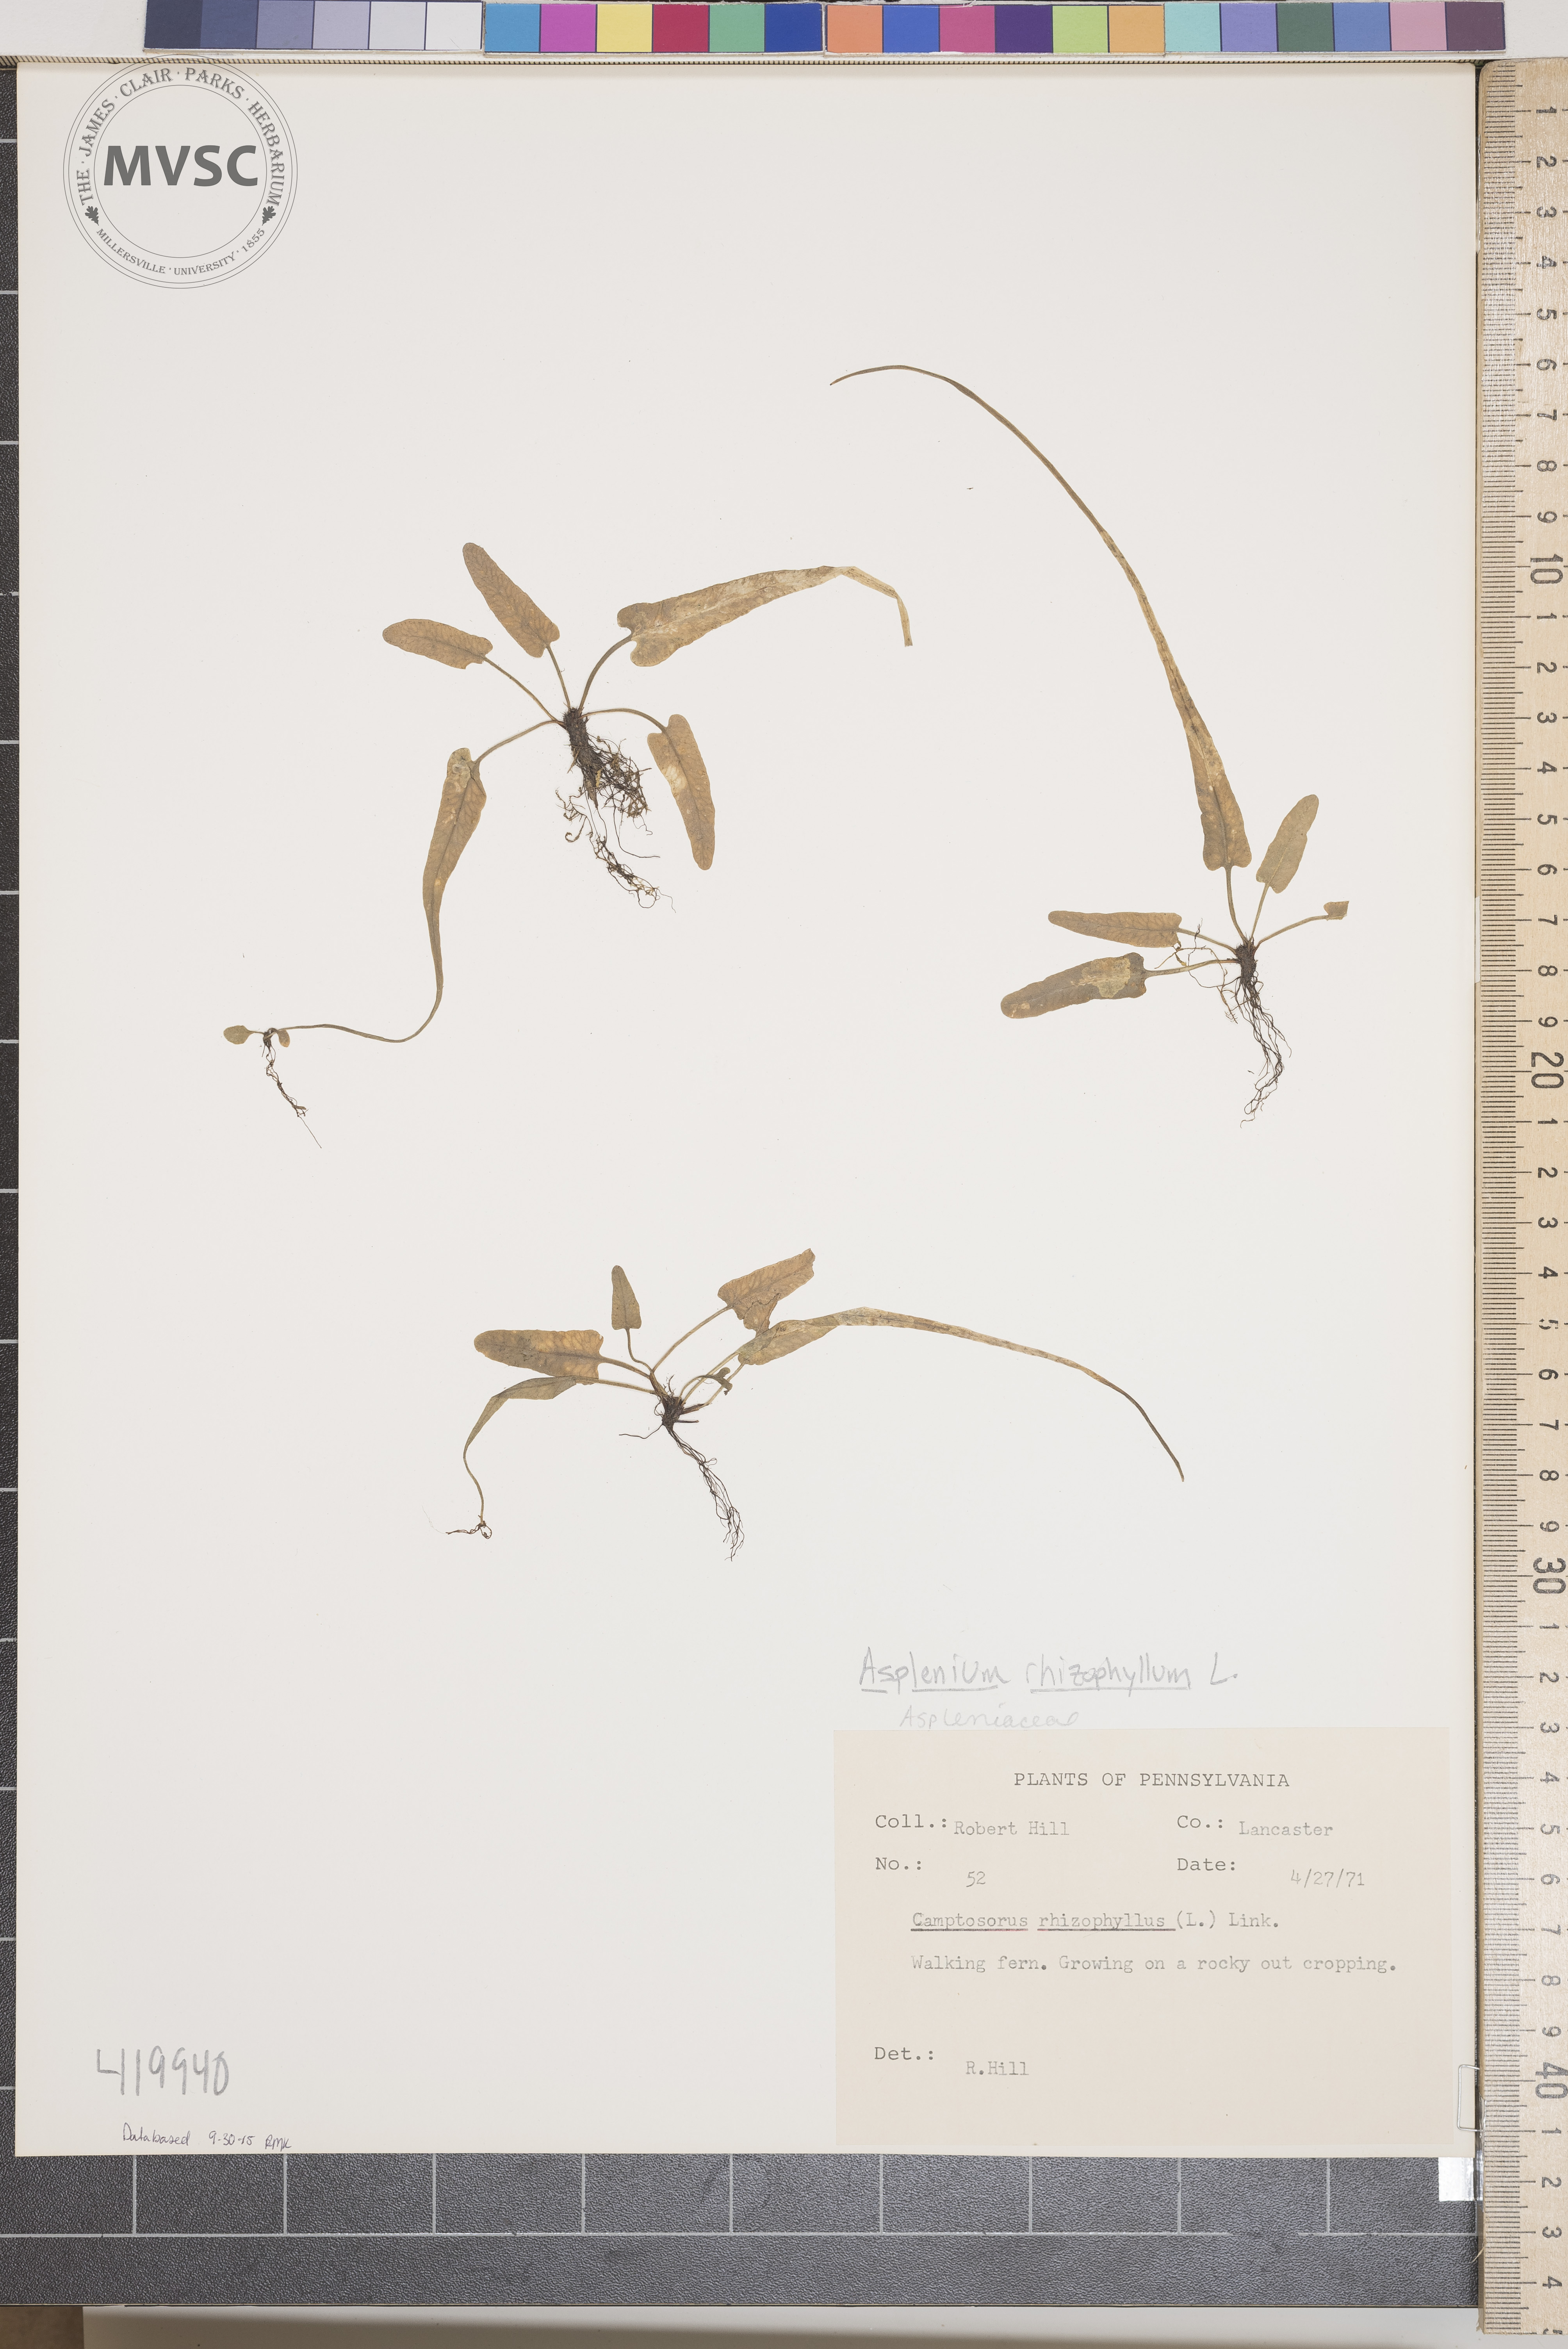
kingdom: Plantae
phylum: Tracheophyta
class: Polypodiopsida
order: Polypodiales
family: Aspleniaceae
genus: Asplenium
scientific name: Asplenium rhizophyllum
